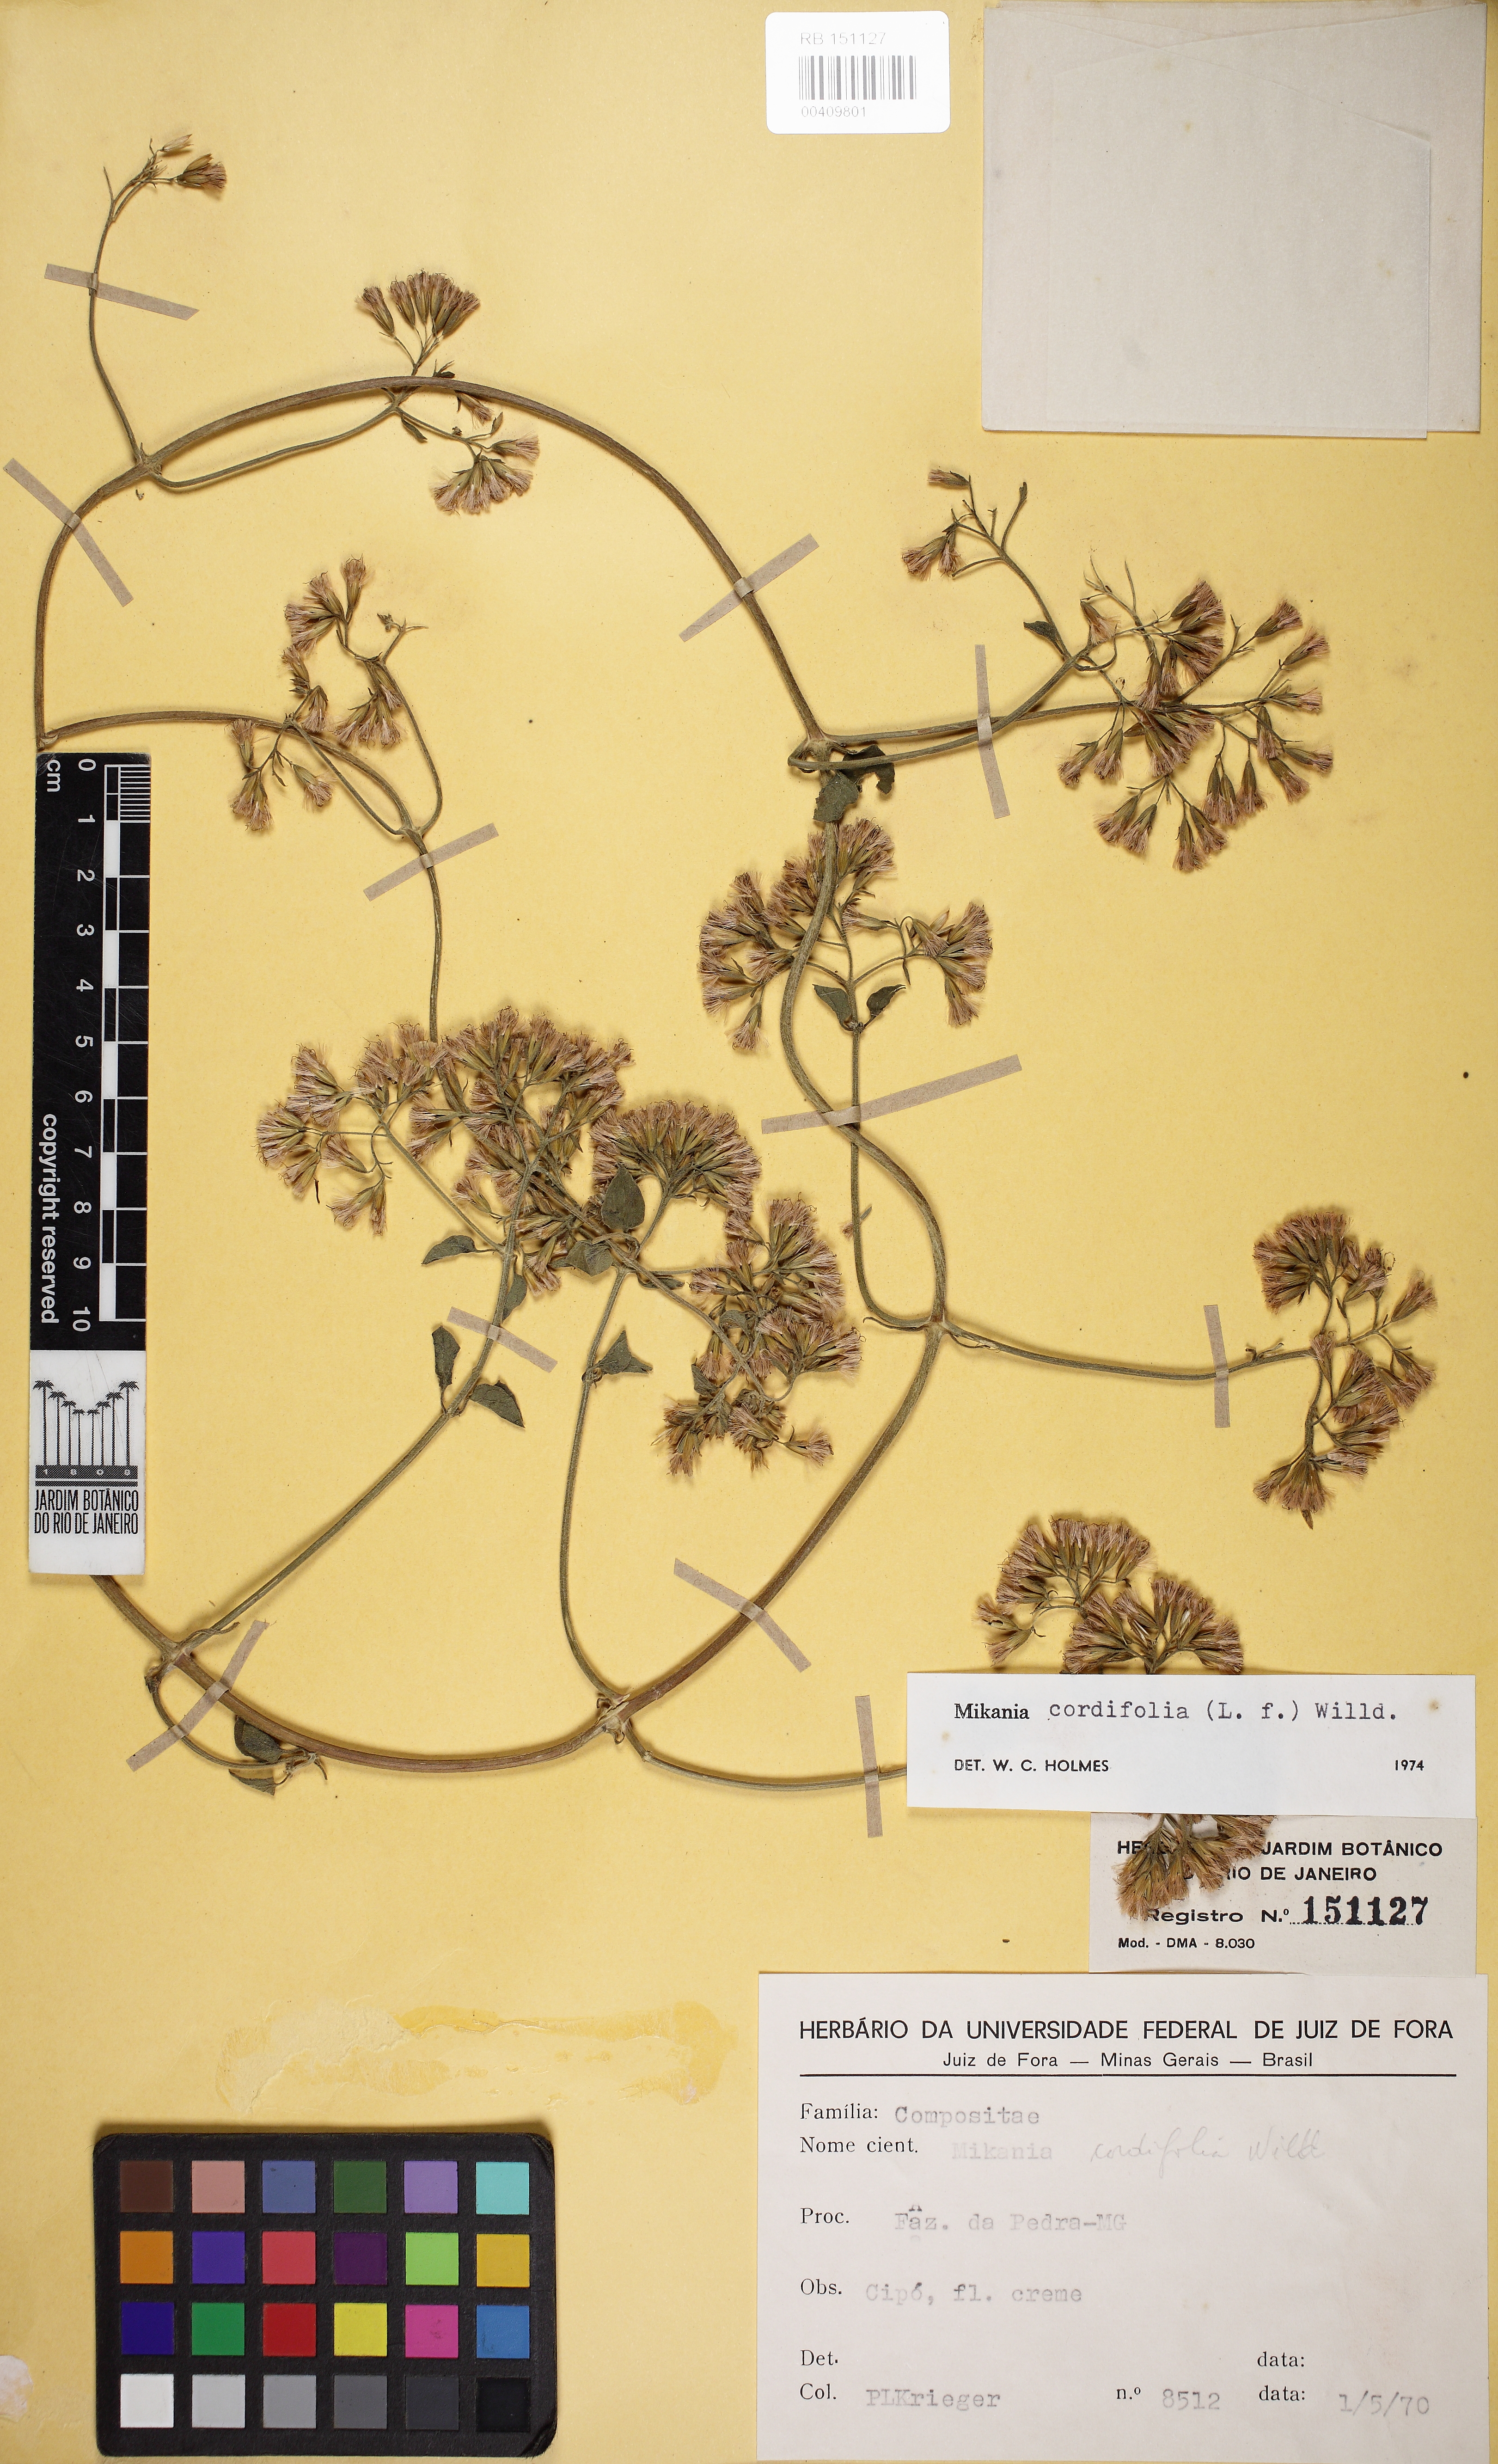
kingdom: Plantae
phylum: Tracheophyta
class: Magnoliopsida
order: Asterales
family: Asteraceae
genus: Mikania
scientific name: Mikania cordifolia
